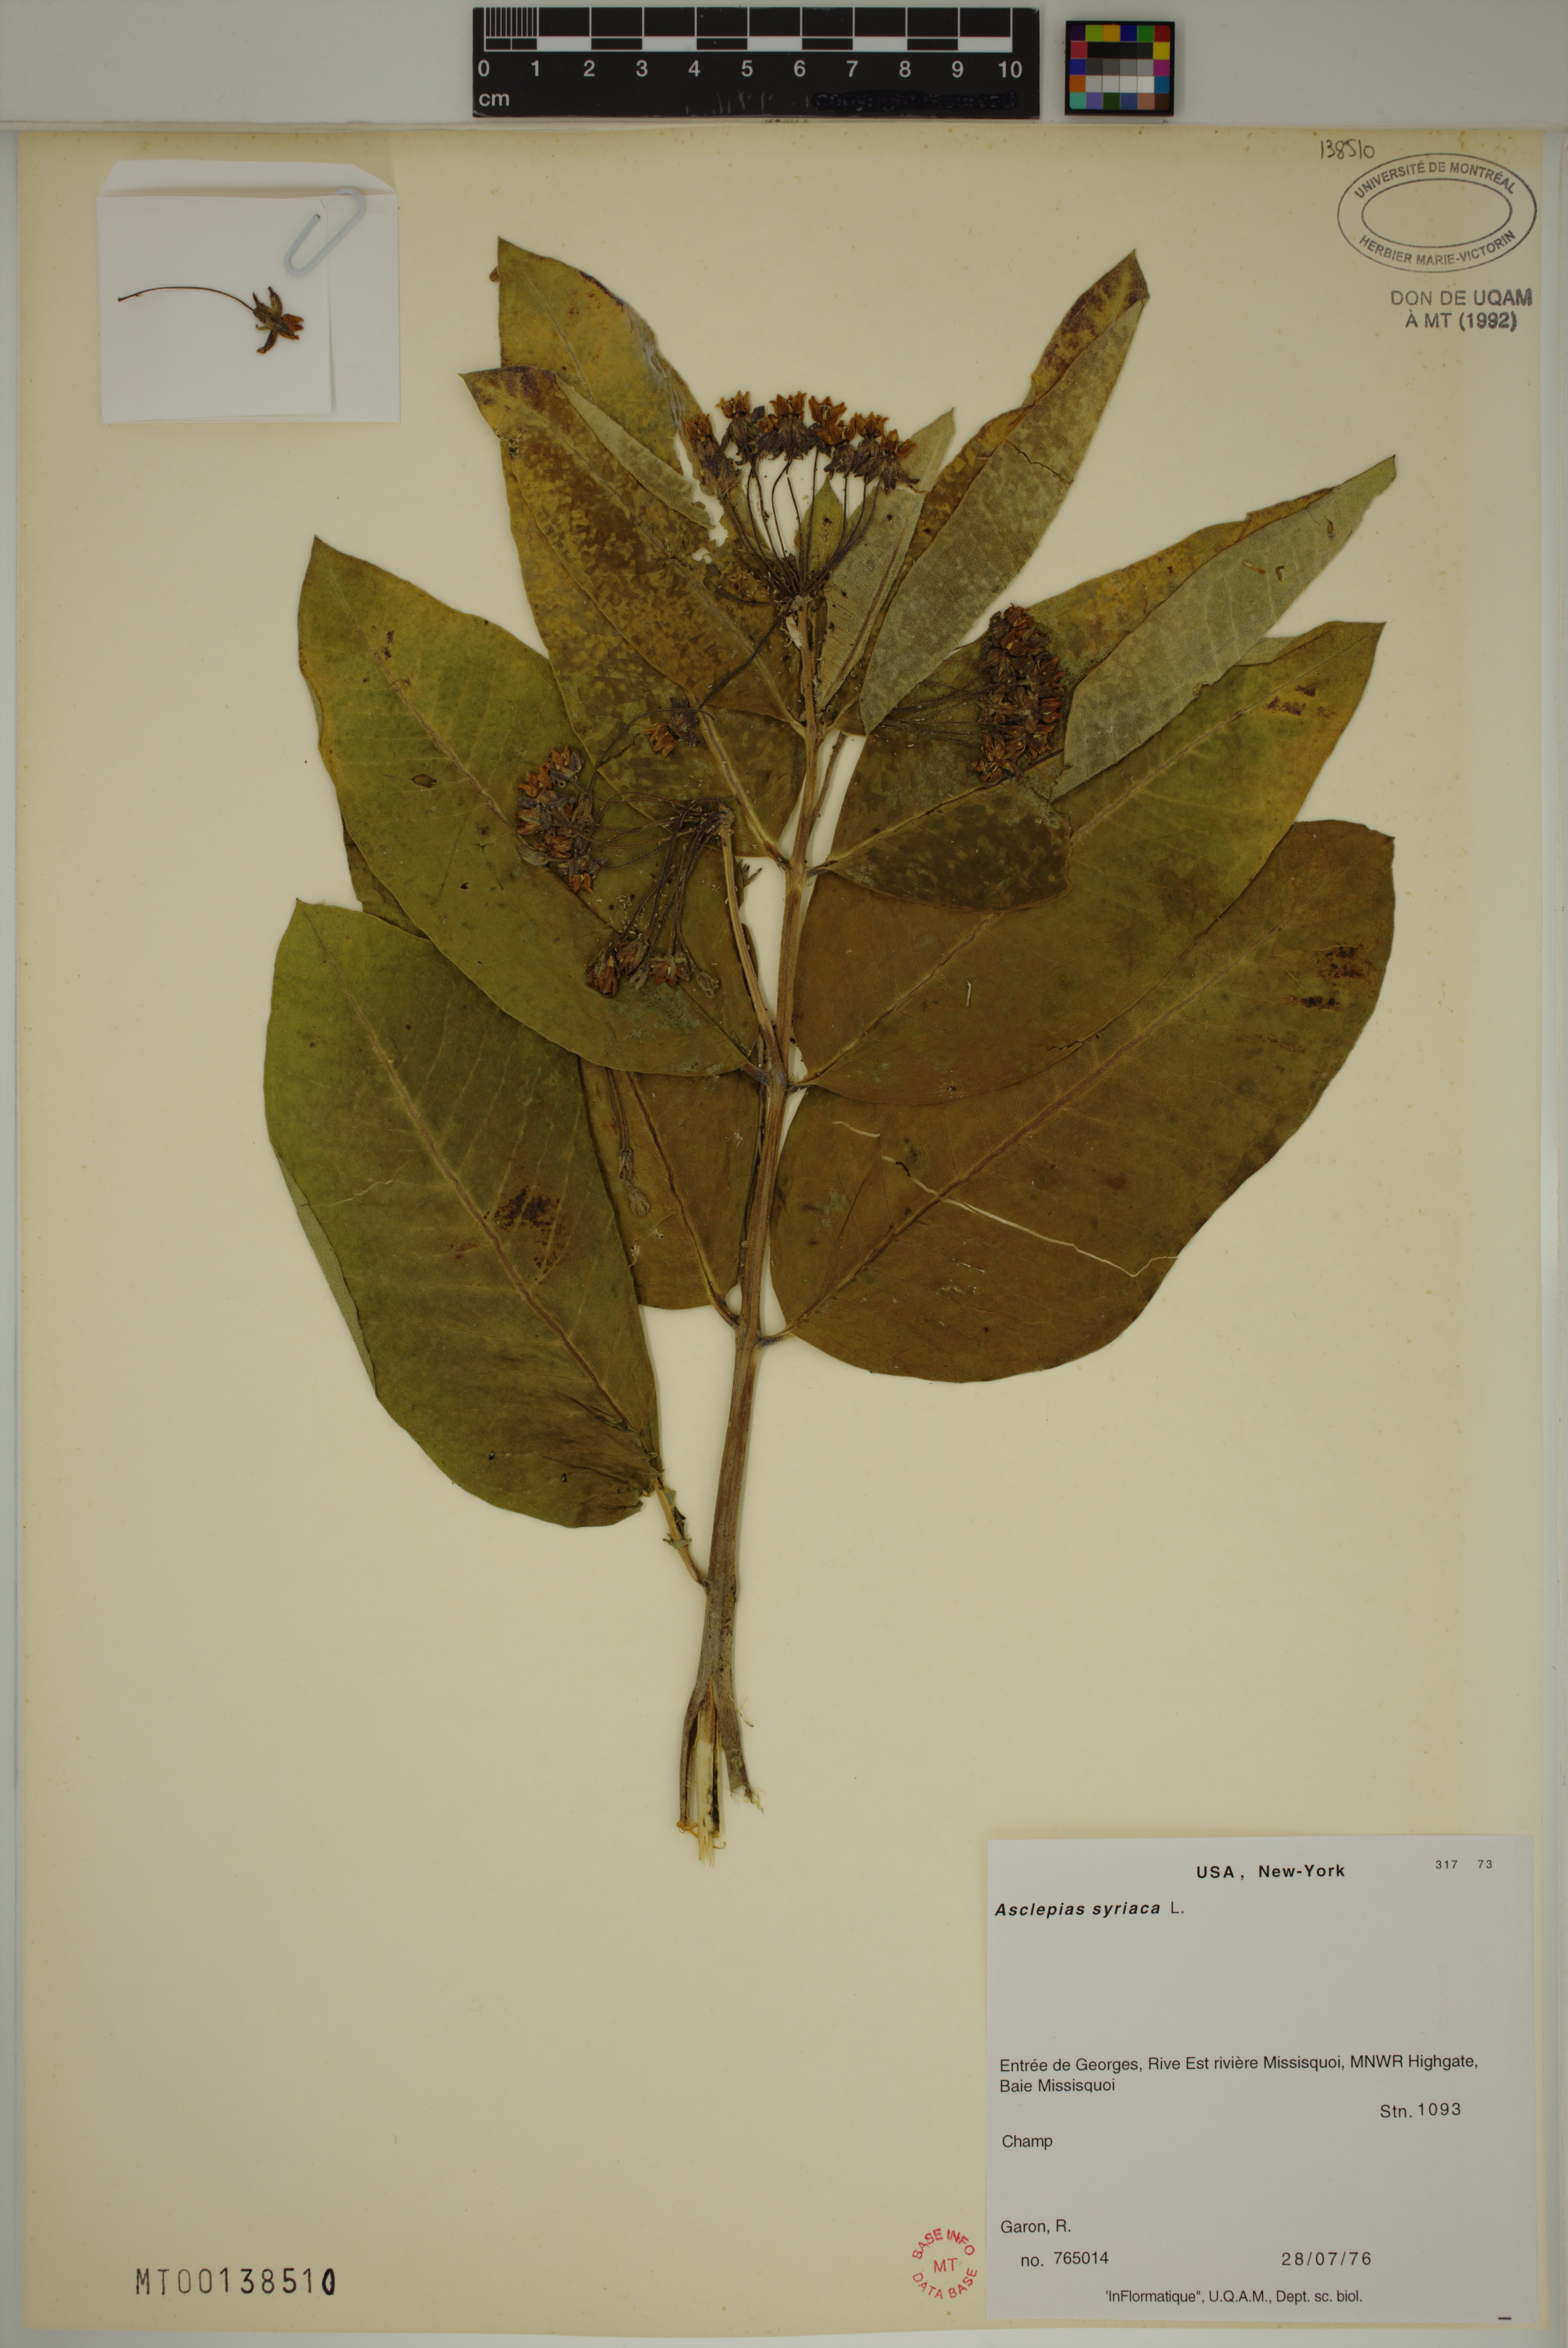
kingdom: Plantae
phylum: Tracheophyta
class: Magnoliopsida
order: Gentianales
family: Apocynaceae
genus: Asclepias
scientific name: Asclepias syriaca
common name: Common milkweed
